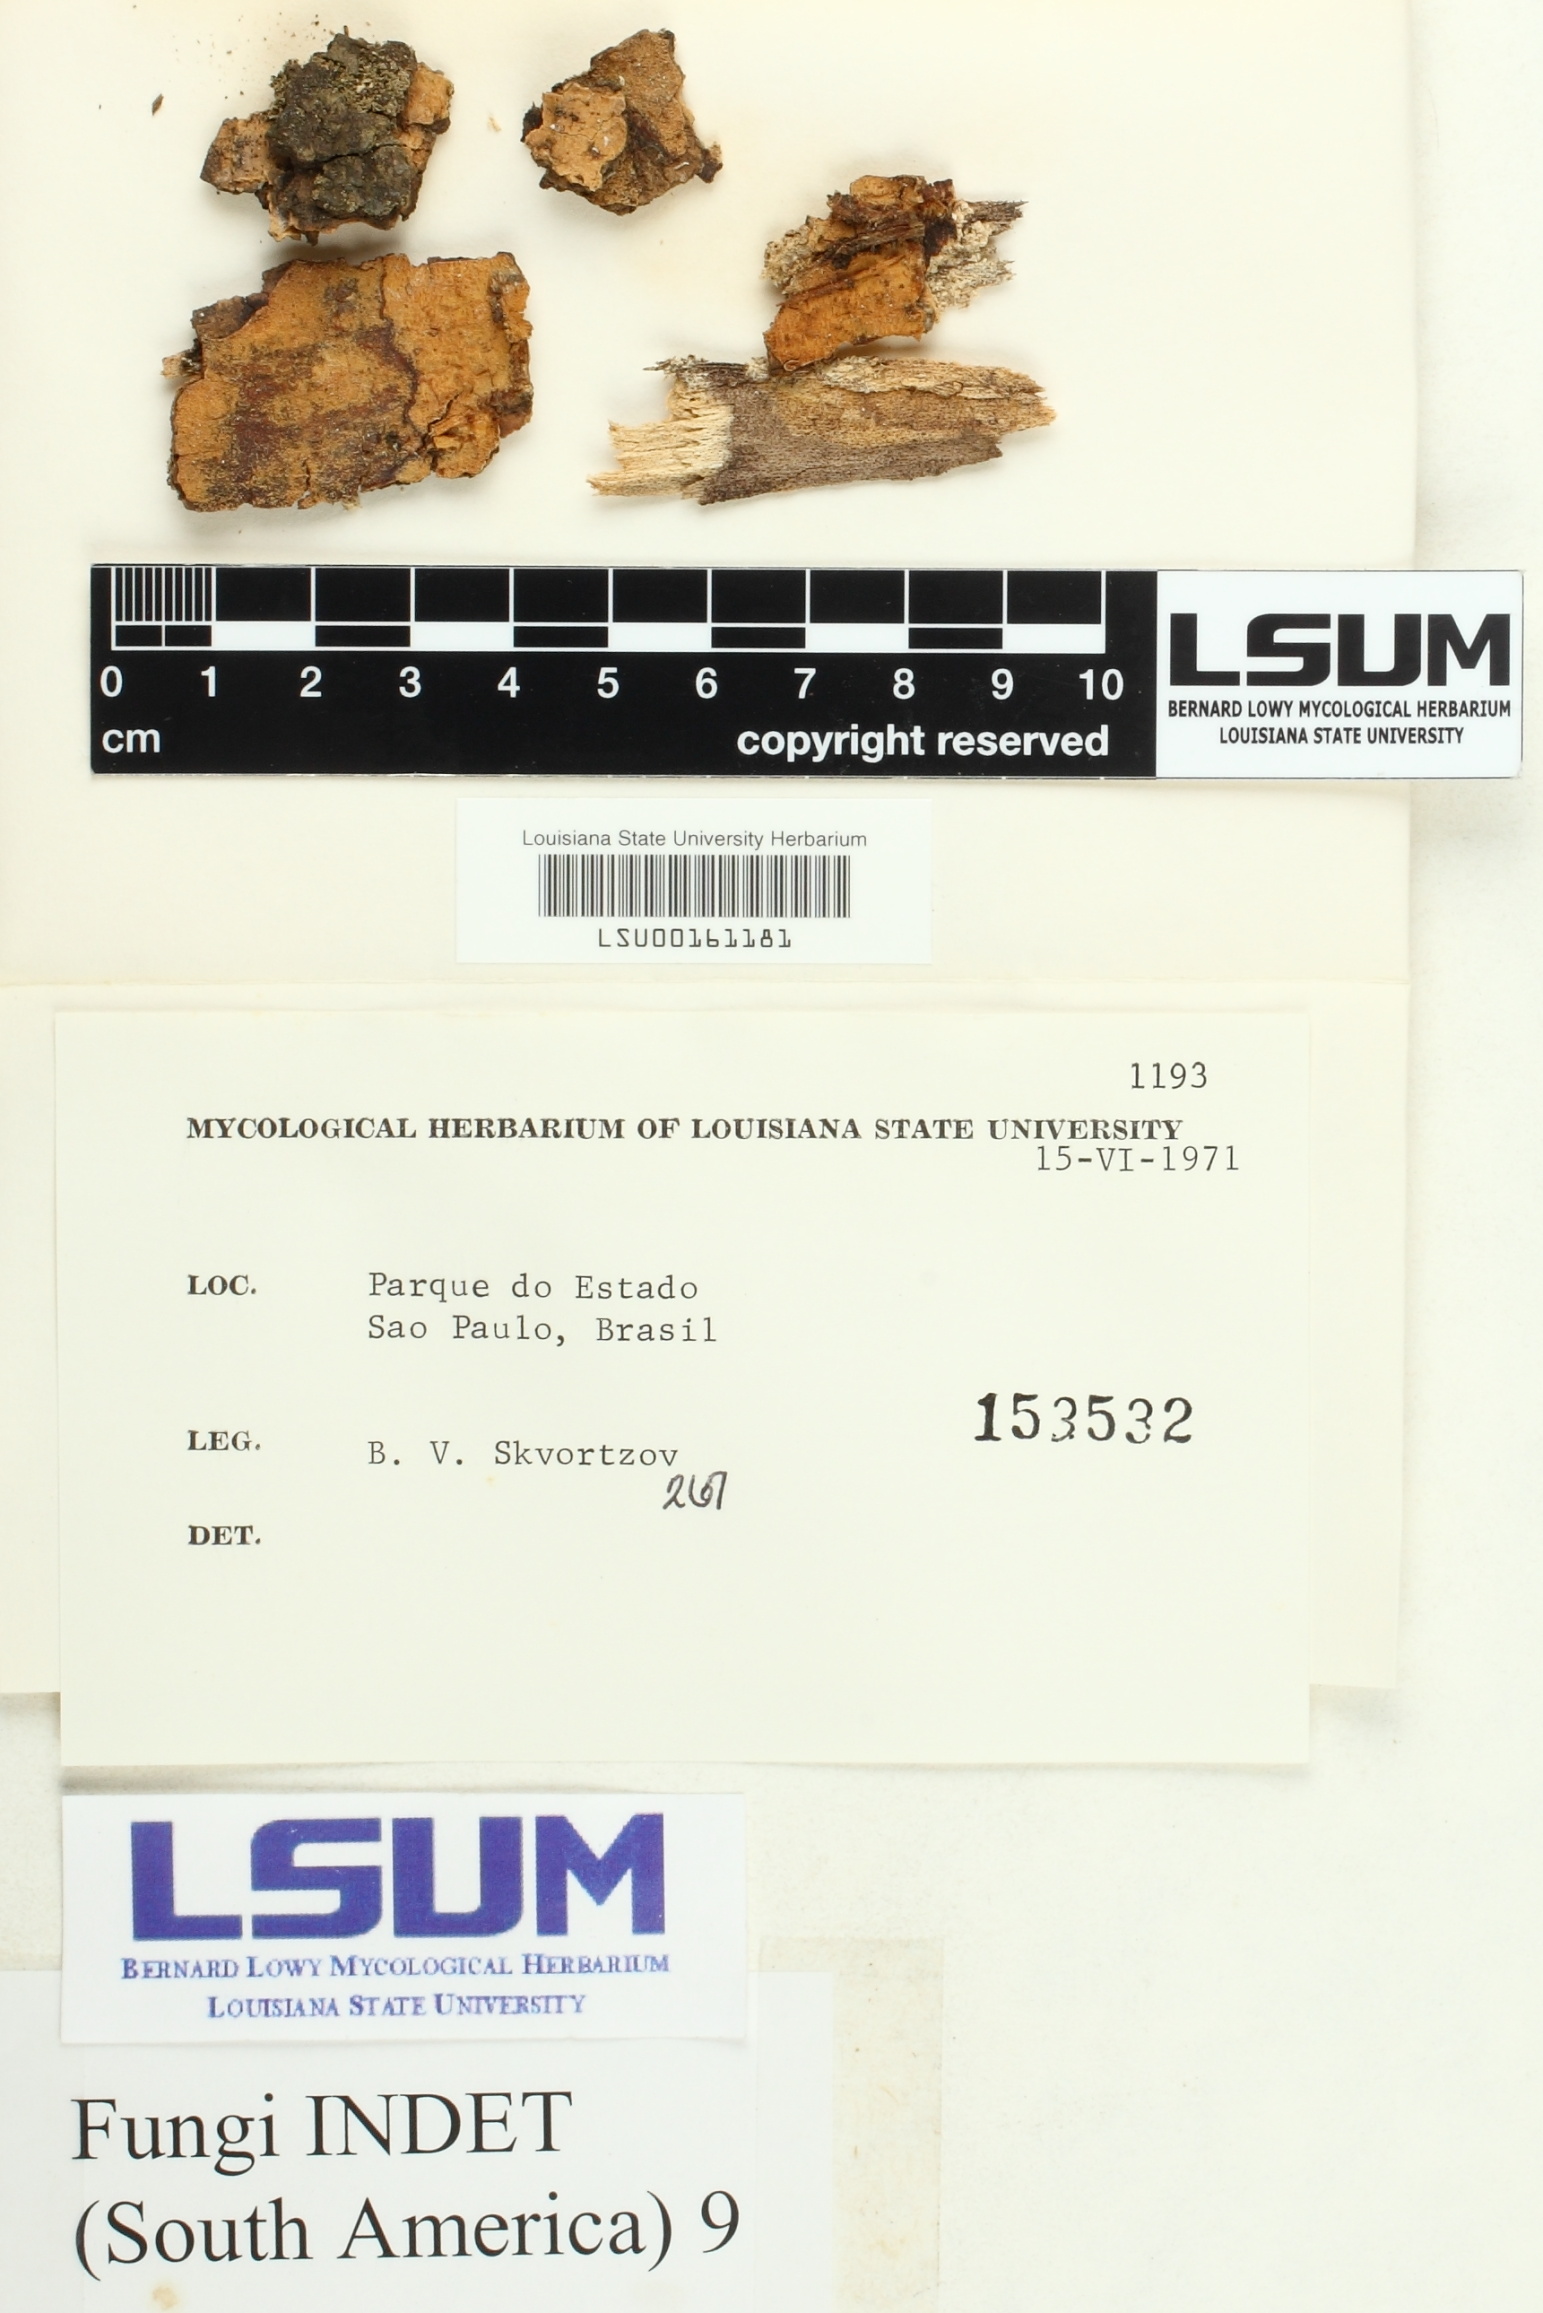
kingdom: Fungi
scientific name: Fungi
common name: Fungi
